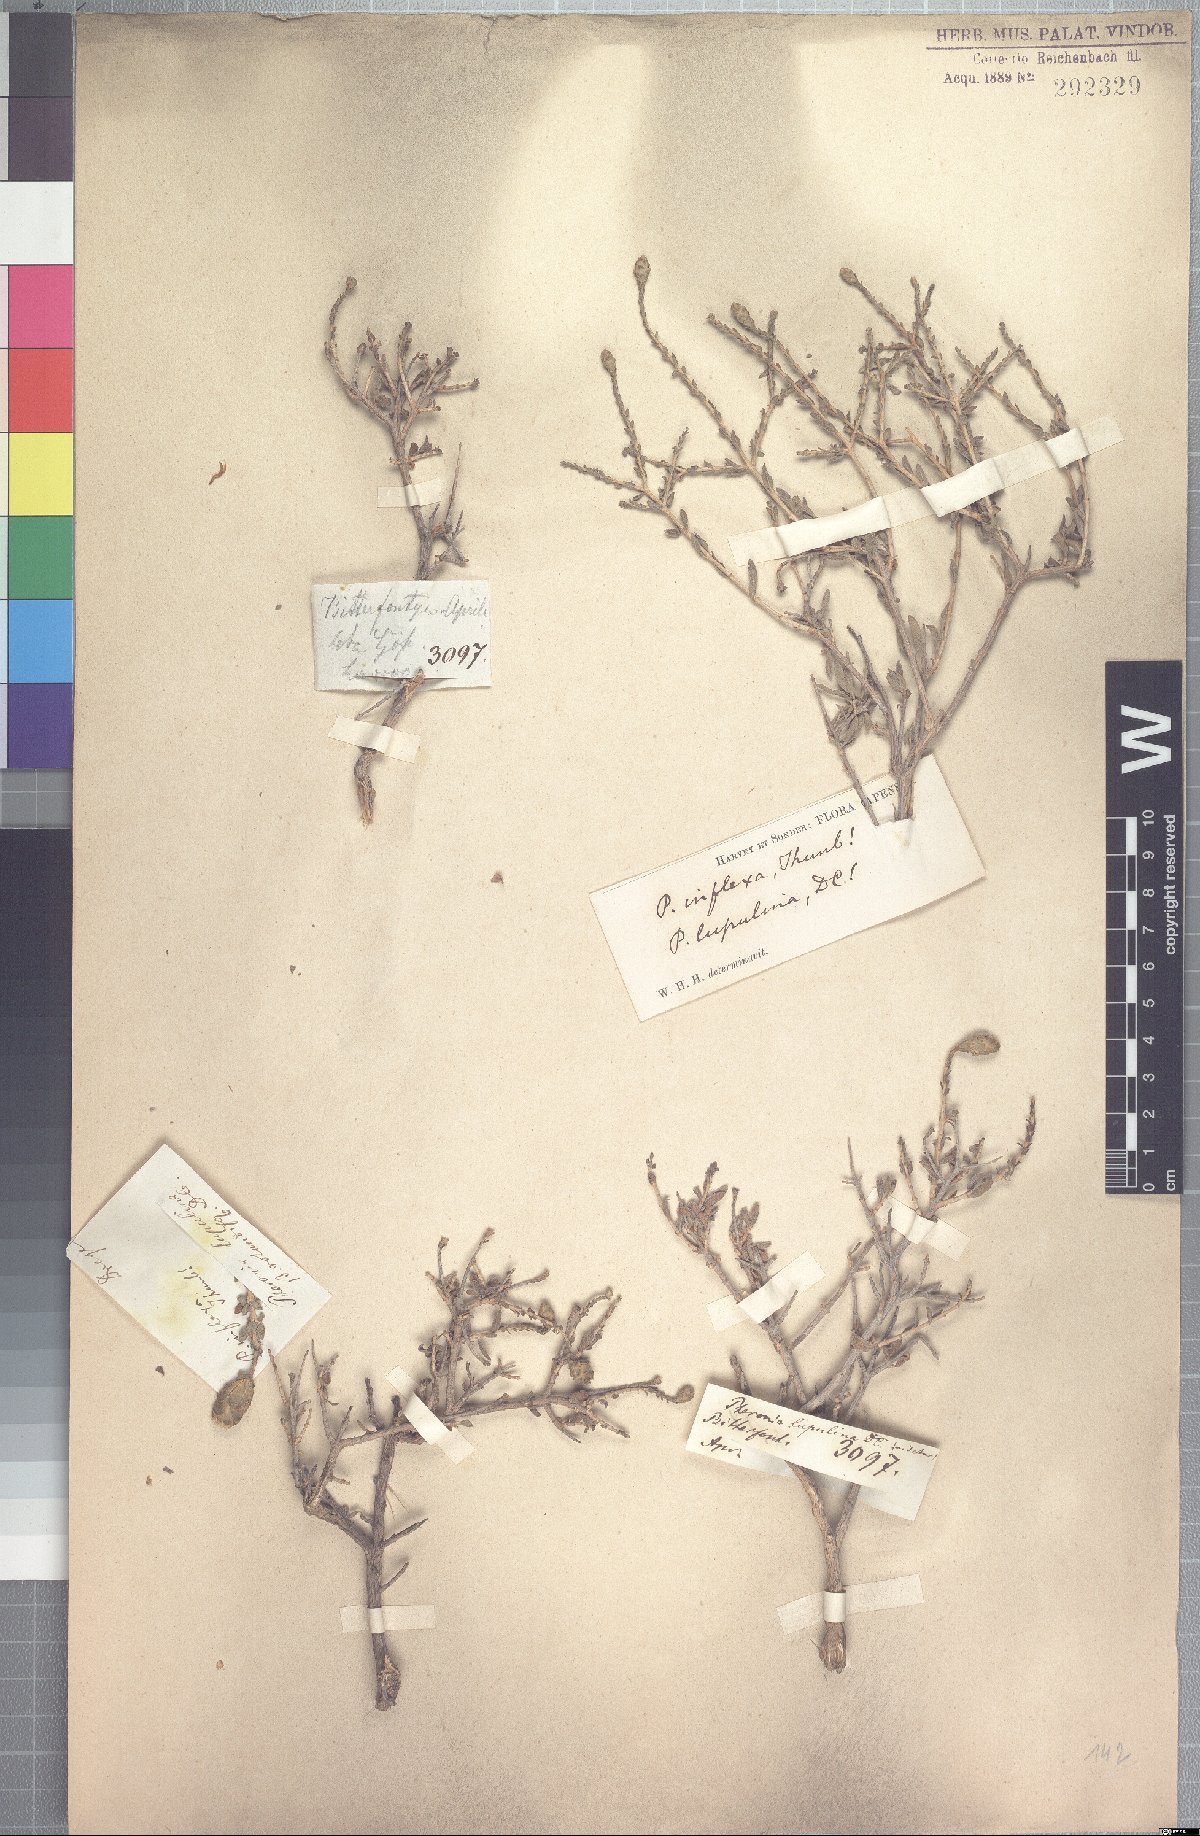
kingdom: Plantae
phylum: Tracheophyta
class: Magnoliopsida
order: Asterales
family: Asteraceae
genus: Pteronia
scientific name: Pteronia inflexa
